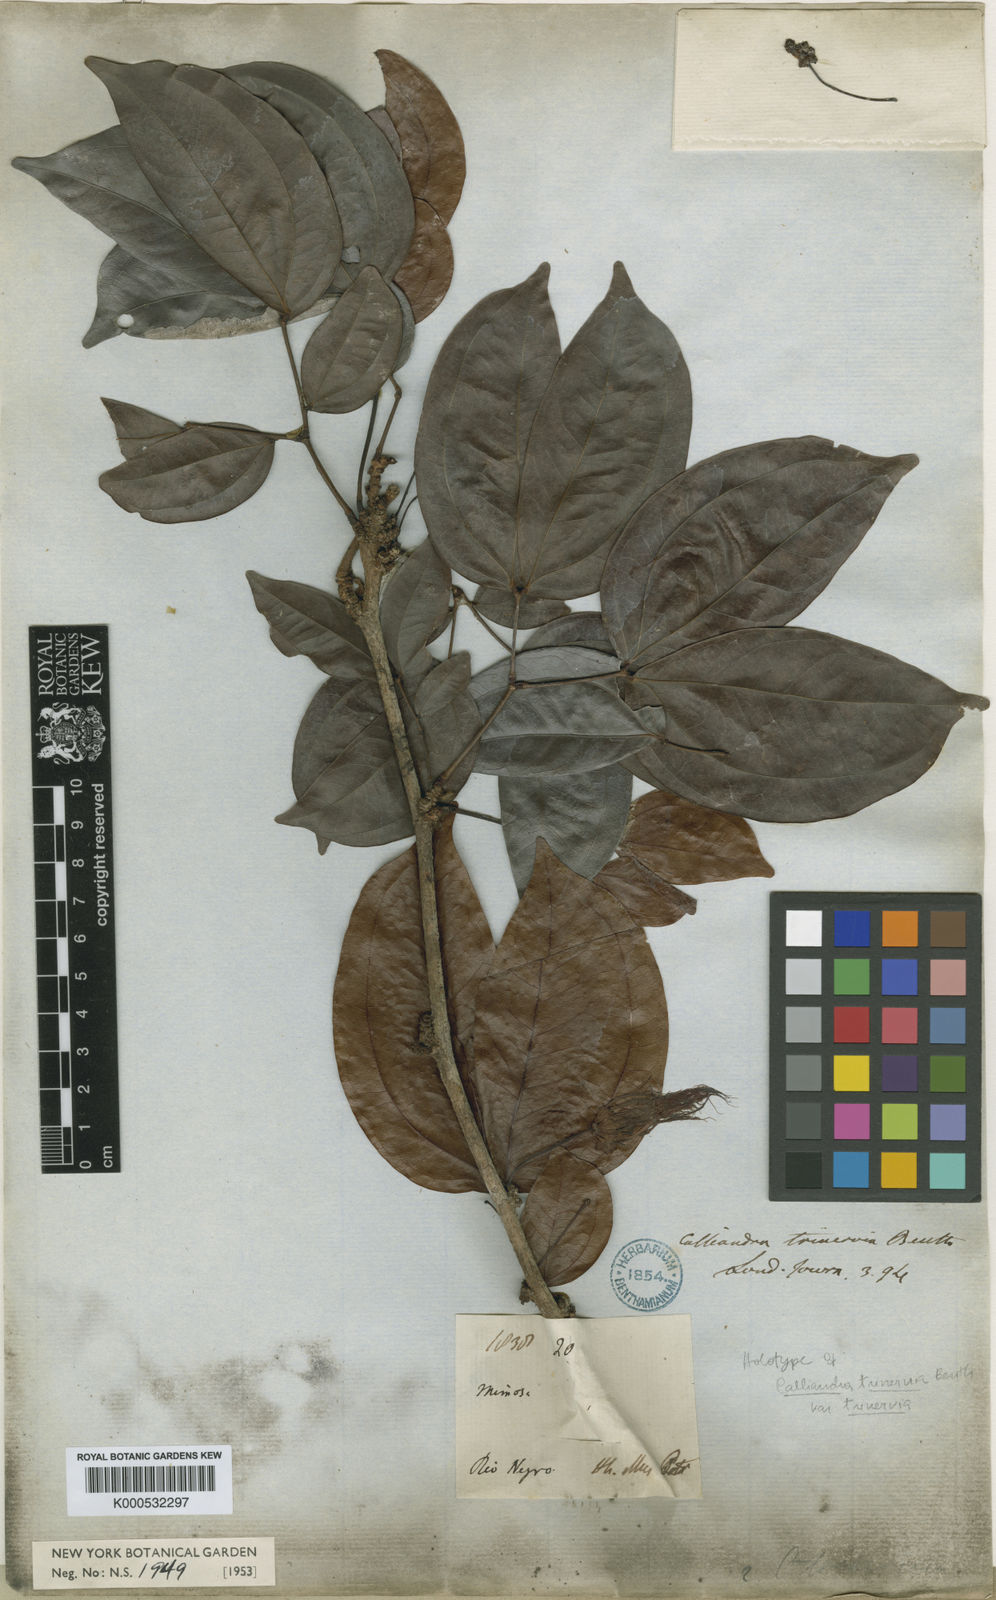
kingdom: Plantae
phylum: Tracheophyta
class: Magnoliopsida
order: Fabales
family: Fabaceae
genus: Calliandra
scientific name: Calliandra trinervia
